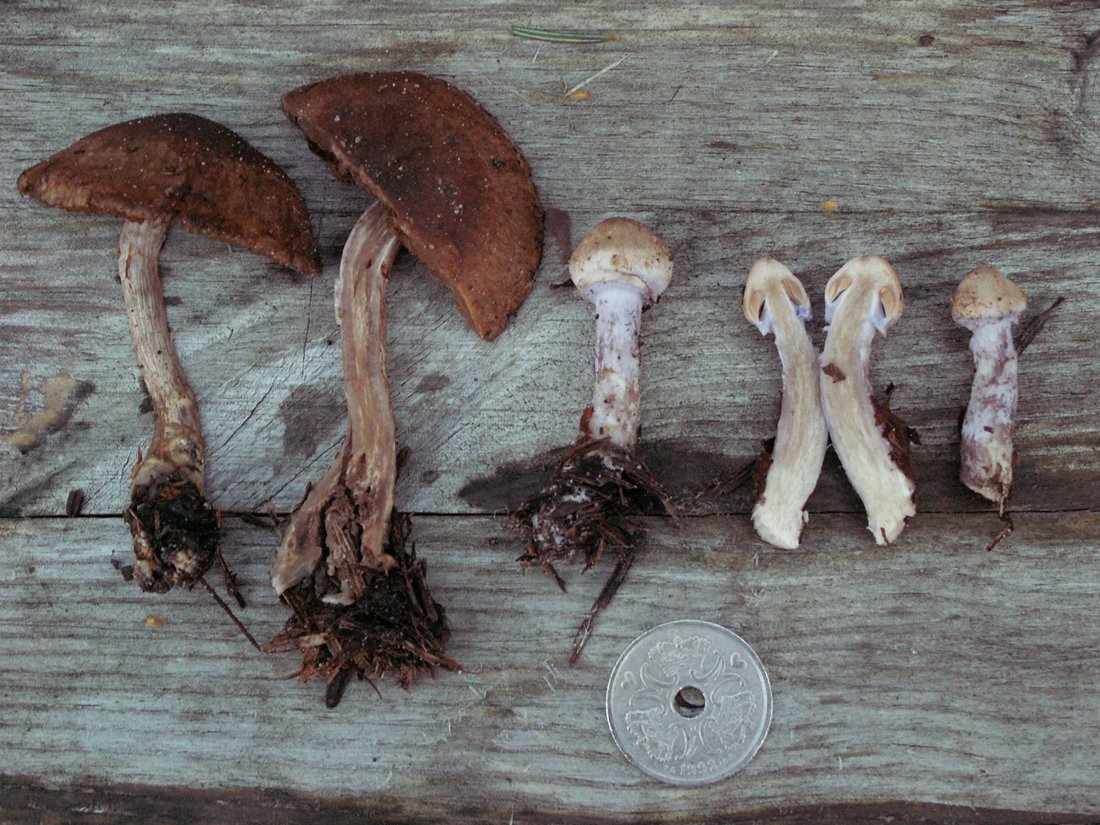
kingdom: Fungi
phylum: Basidiomycota
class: Agaricomycetes
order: Agaricales
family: Cortinariaceae
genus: Cortinarius
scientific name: Cortinarius venustus
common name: violetstokket slørhat
